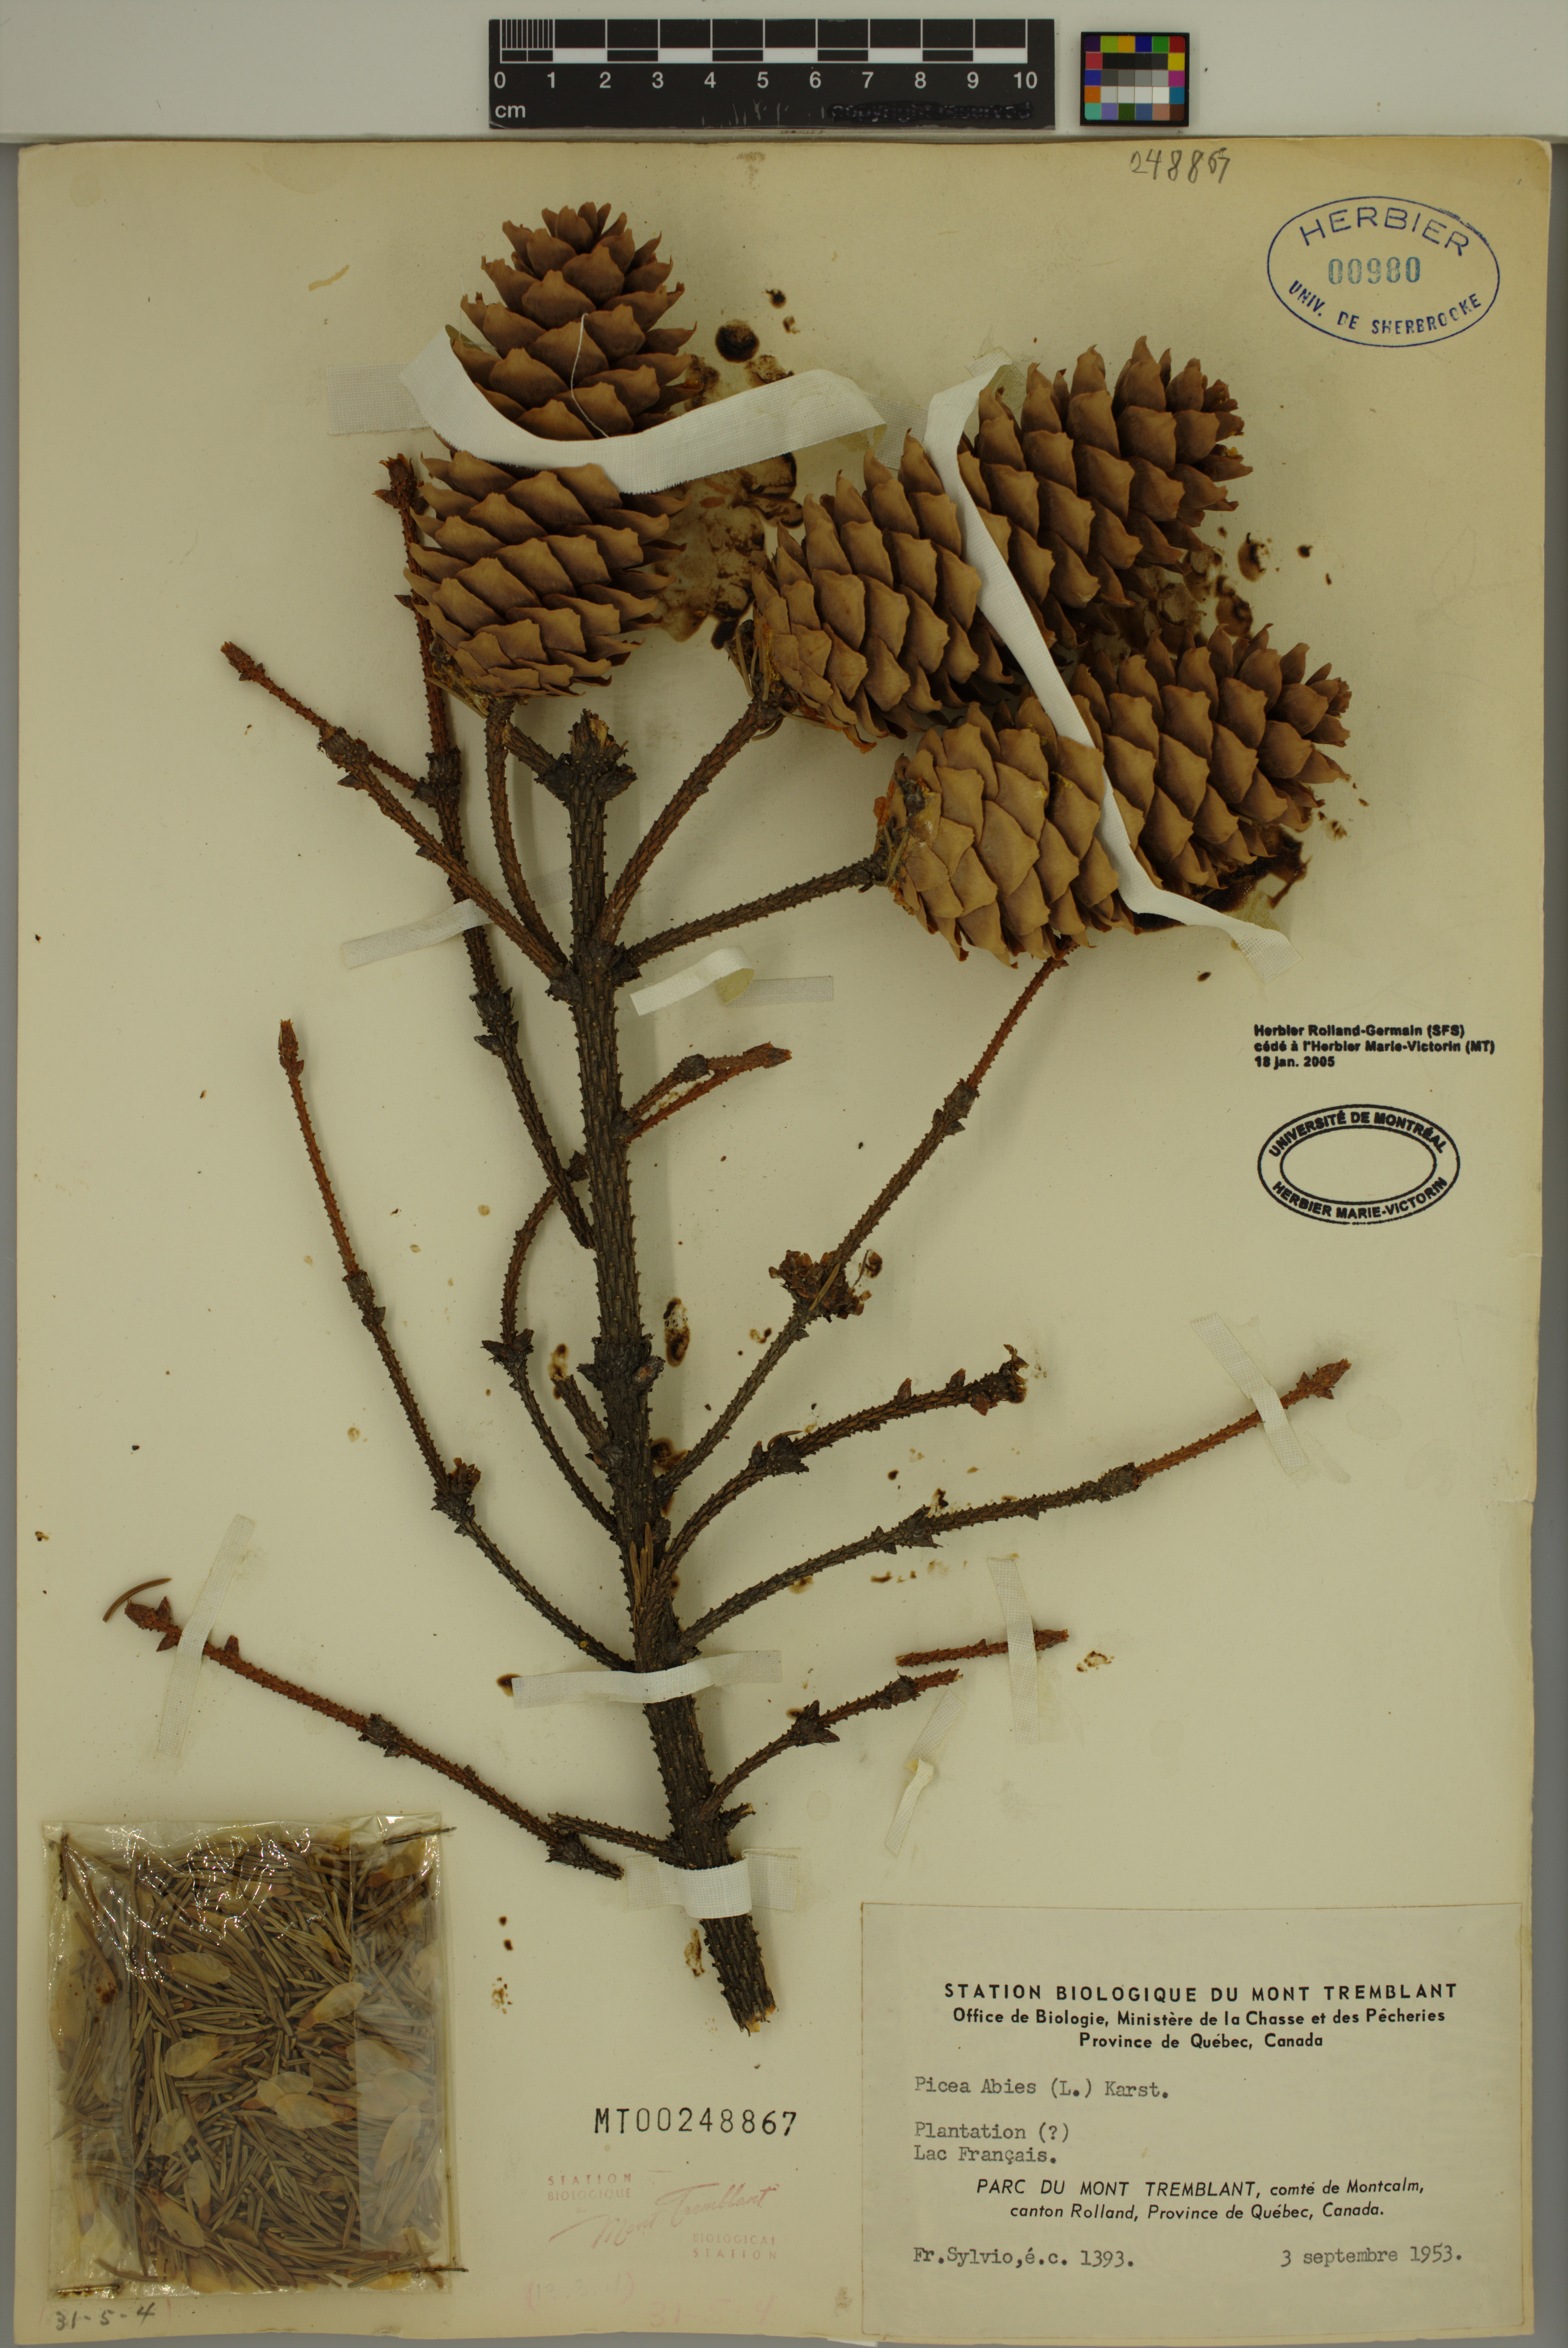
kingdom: Plantae
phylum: Tracheophyta
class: Pinopsida
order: Pinales
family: Pinaceae
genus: Picea
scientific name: Picea abies
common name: Norway spruce
